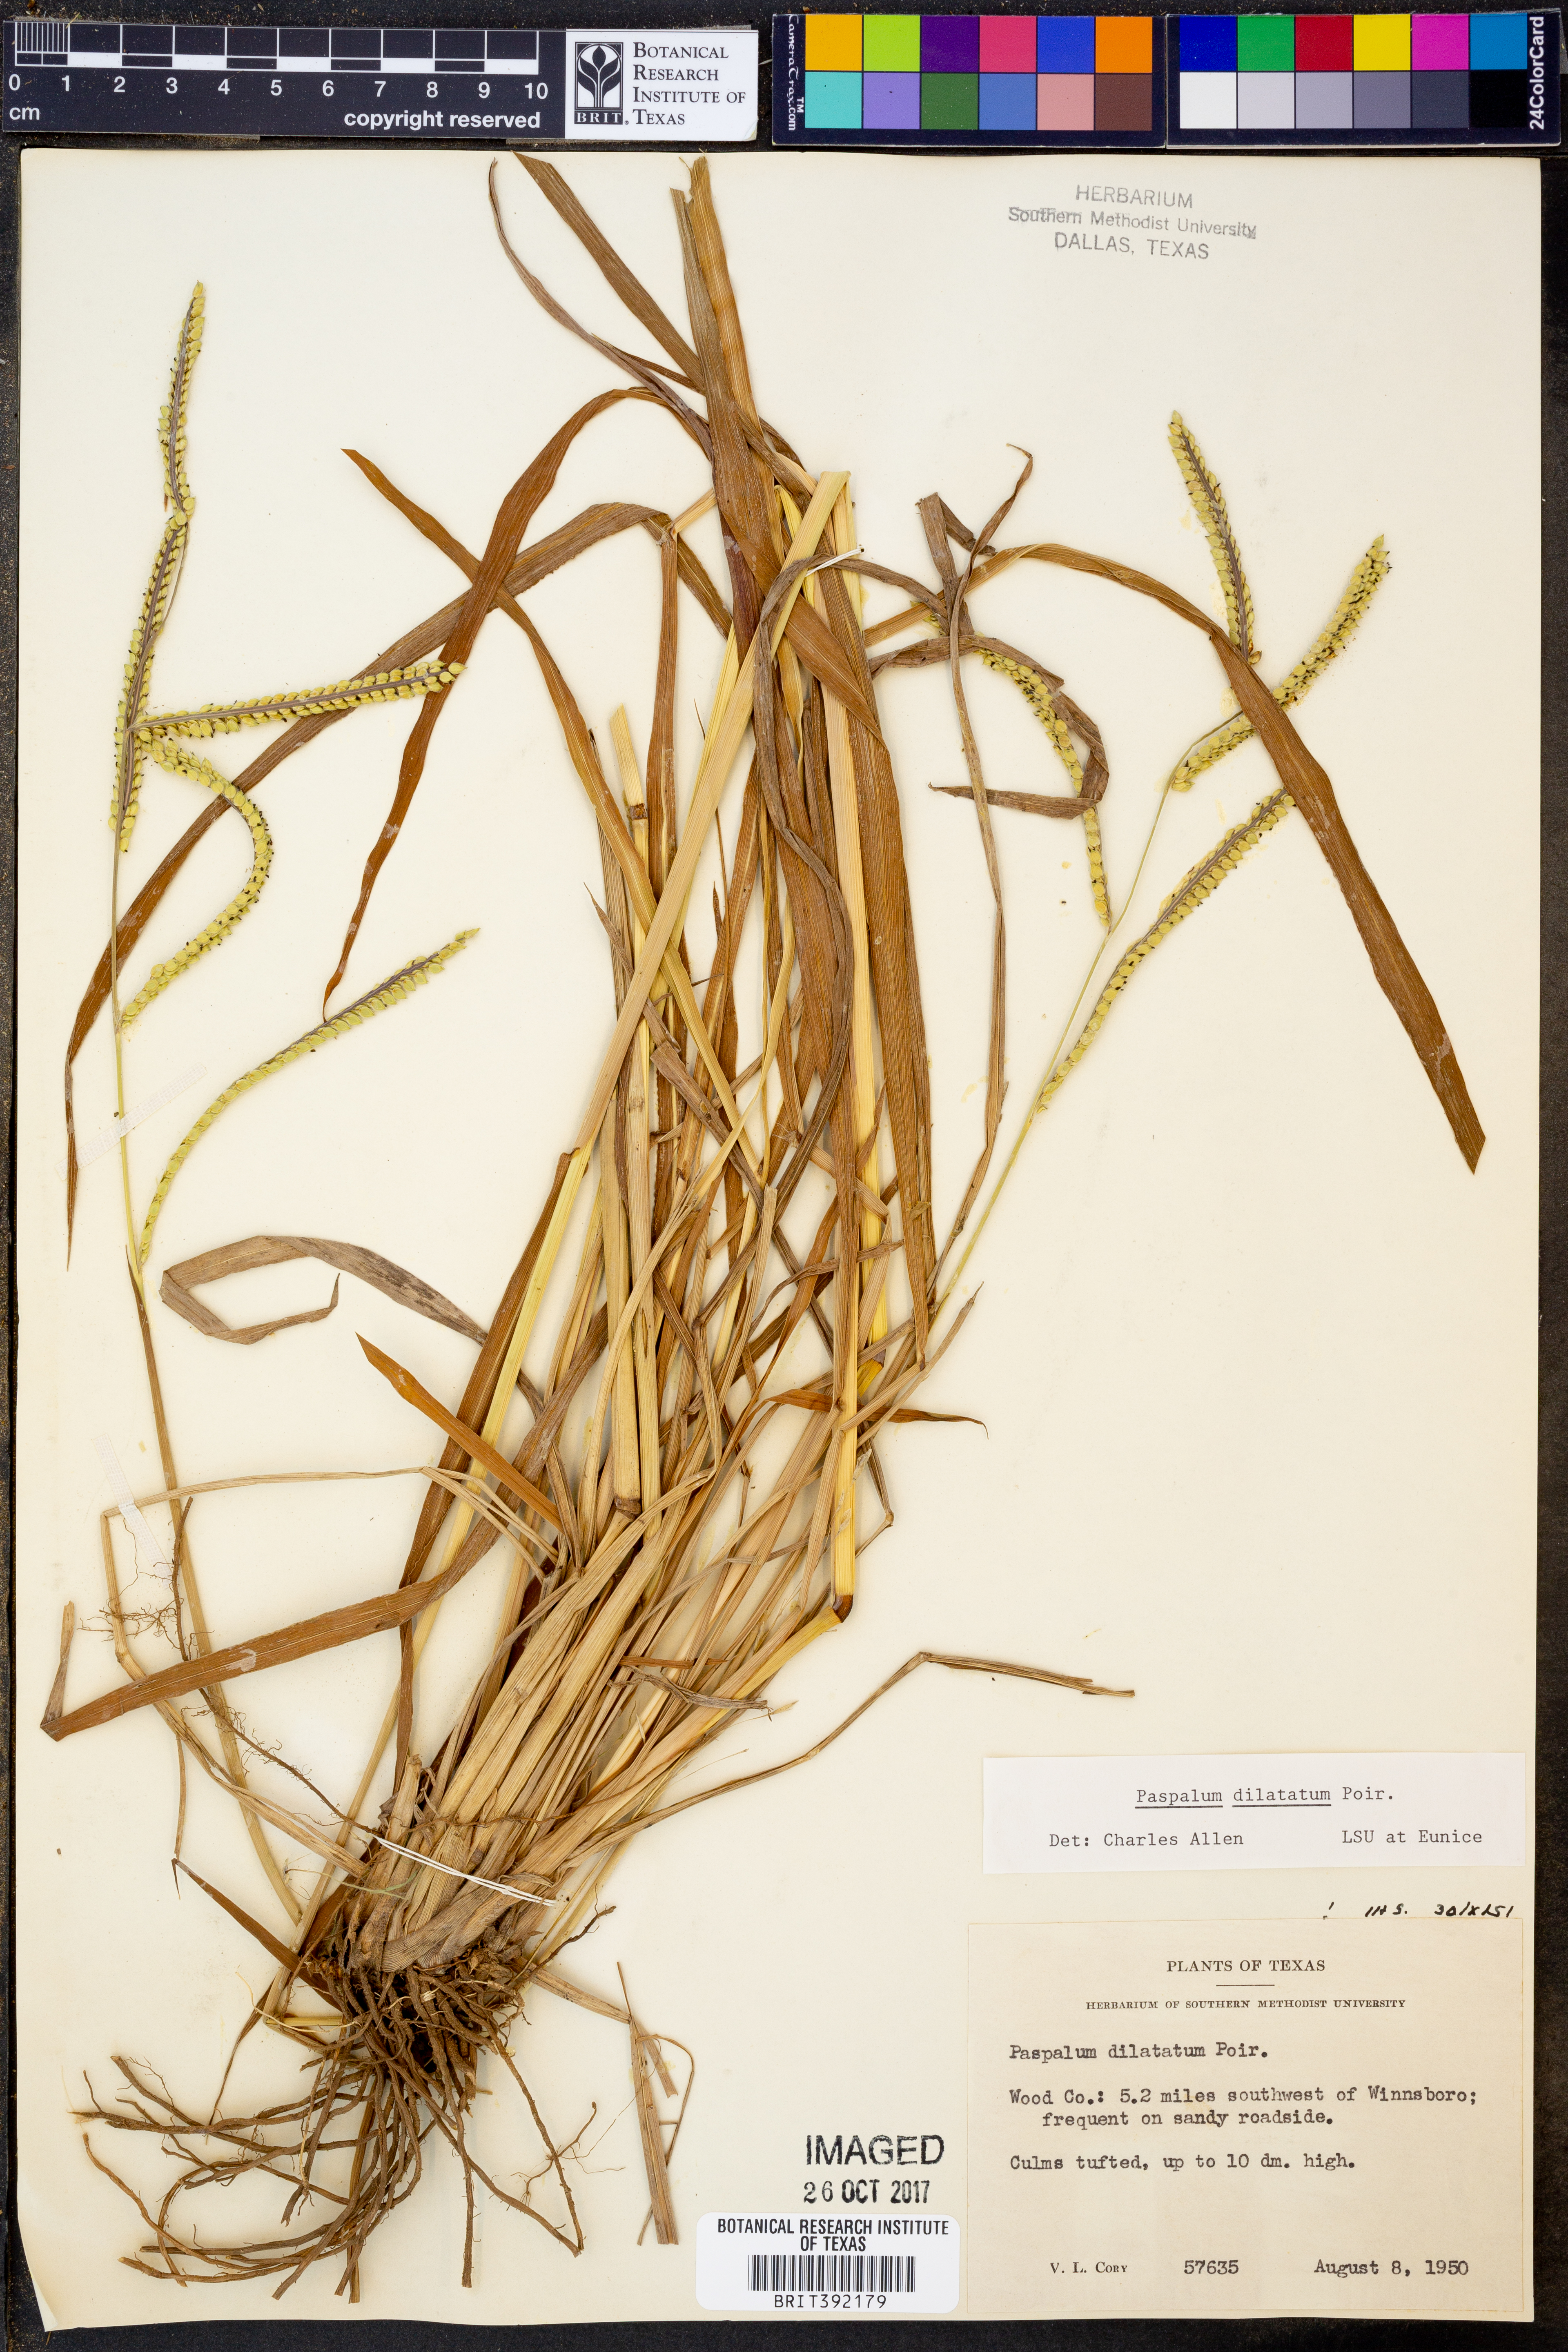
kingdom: Plantae
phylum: Tracheophyta
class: Liliopsida
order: Poales
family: Poaceae
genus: Paspalum
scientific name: Paspalum dilatatum
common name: Dallisgrass
